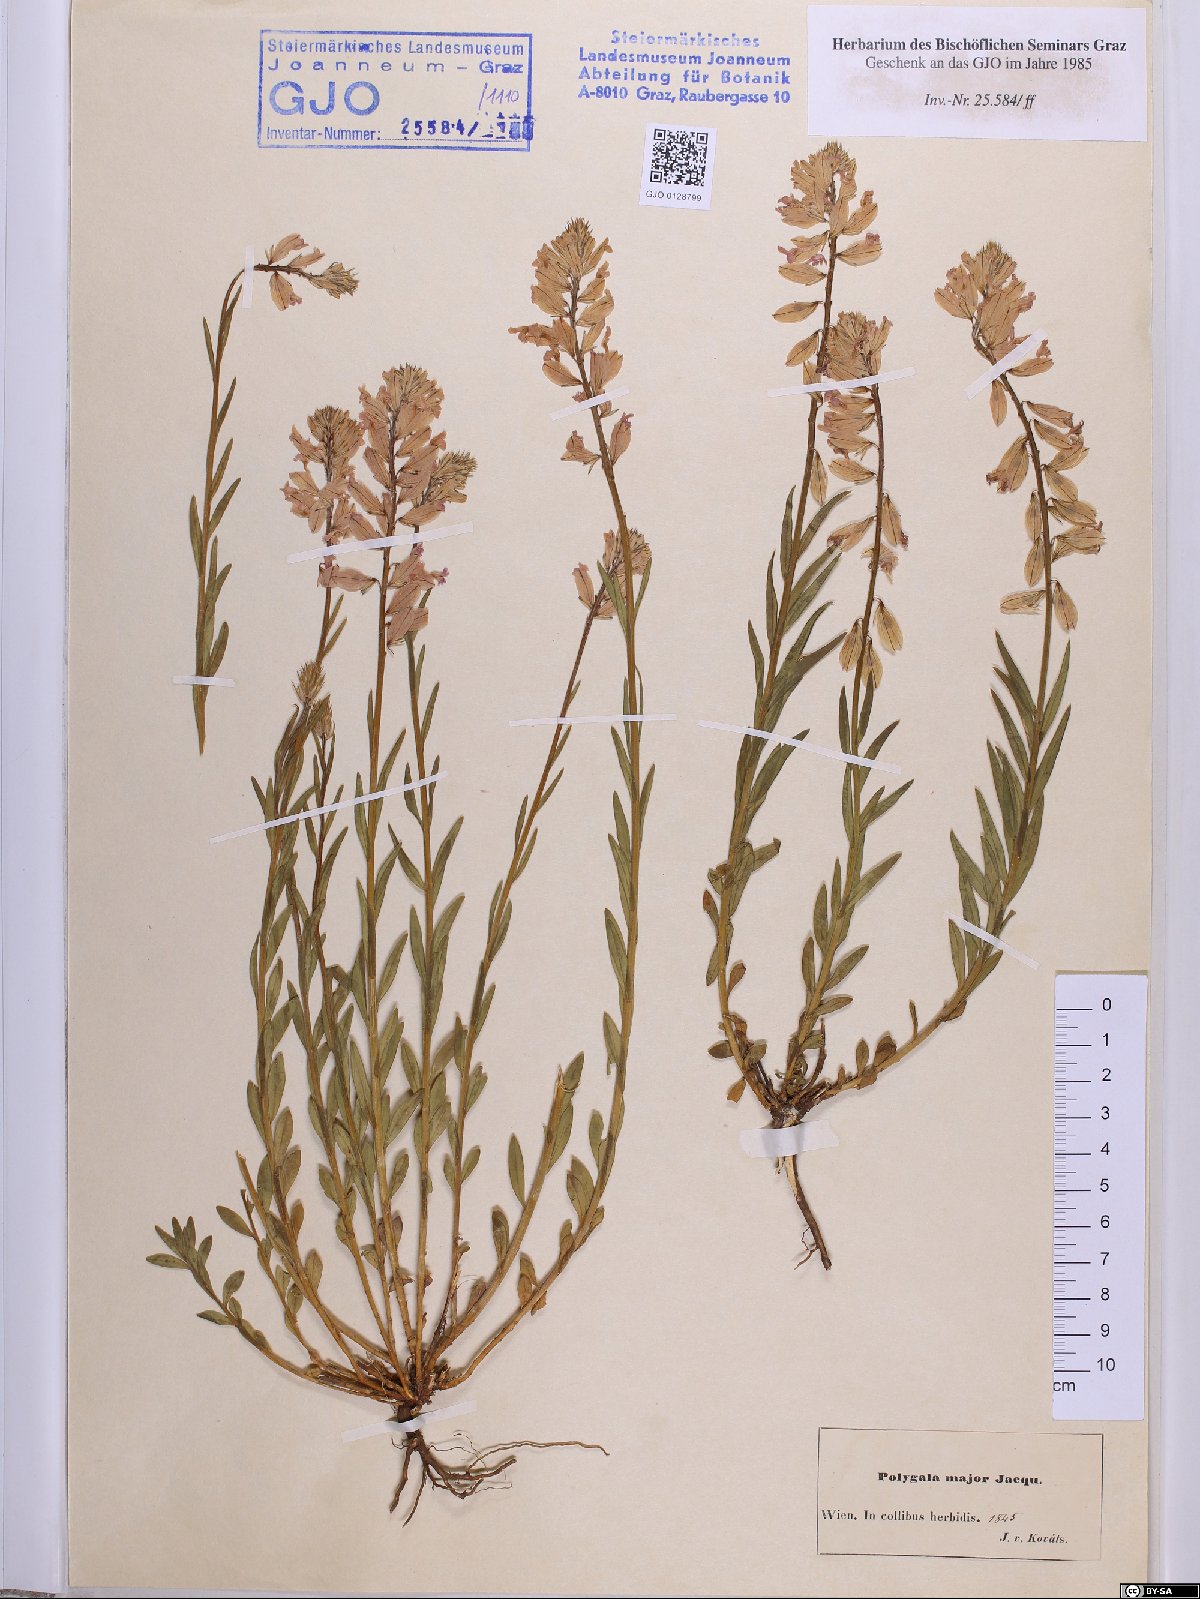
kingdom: Plantae
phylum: Tracheophyta
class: Magnoliopsida
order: Fabales
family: Polygalaceae
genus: Polygala
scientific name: Polygala major
